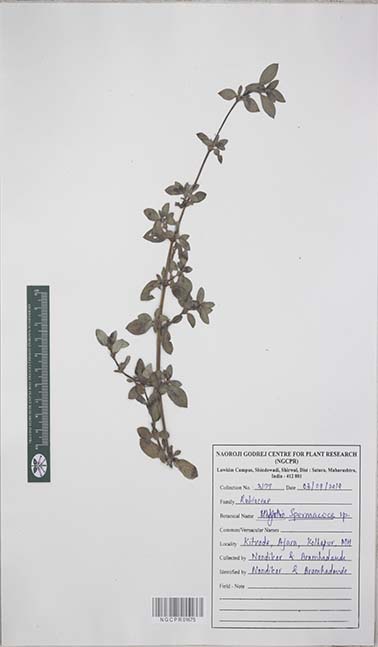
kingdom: Plantae
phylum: Tracheophyta
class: Magnoliopsida
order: Gentianales
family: Rubiaceae
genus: Spermacoce
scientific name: Spermacoce
